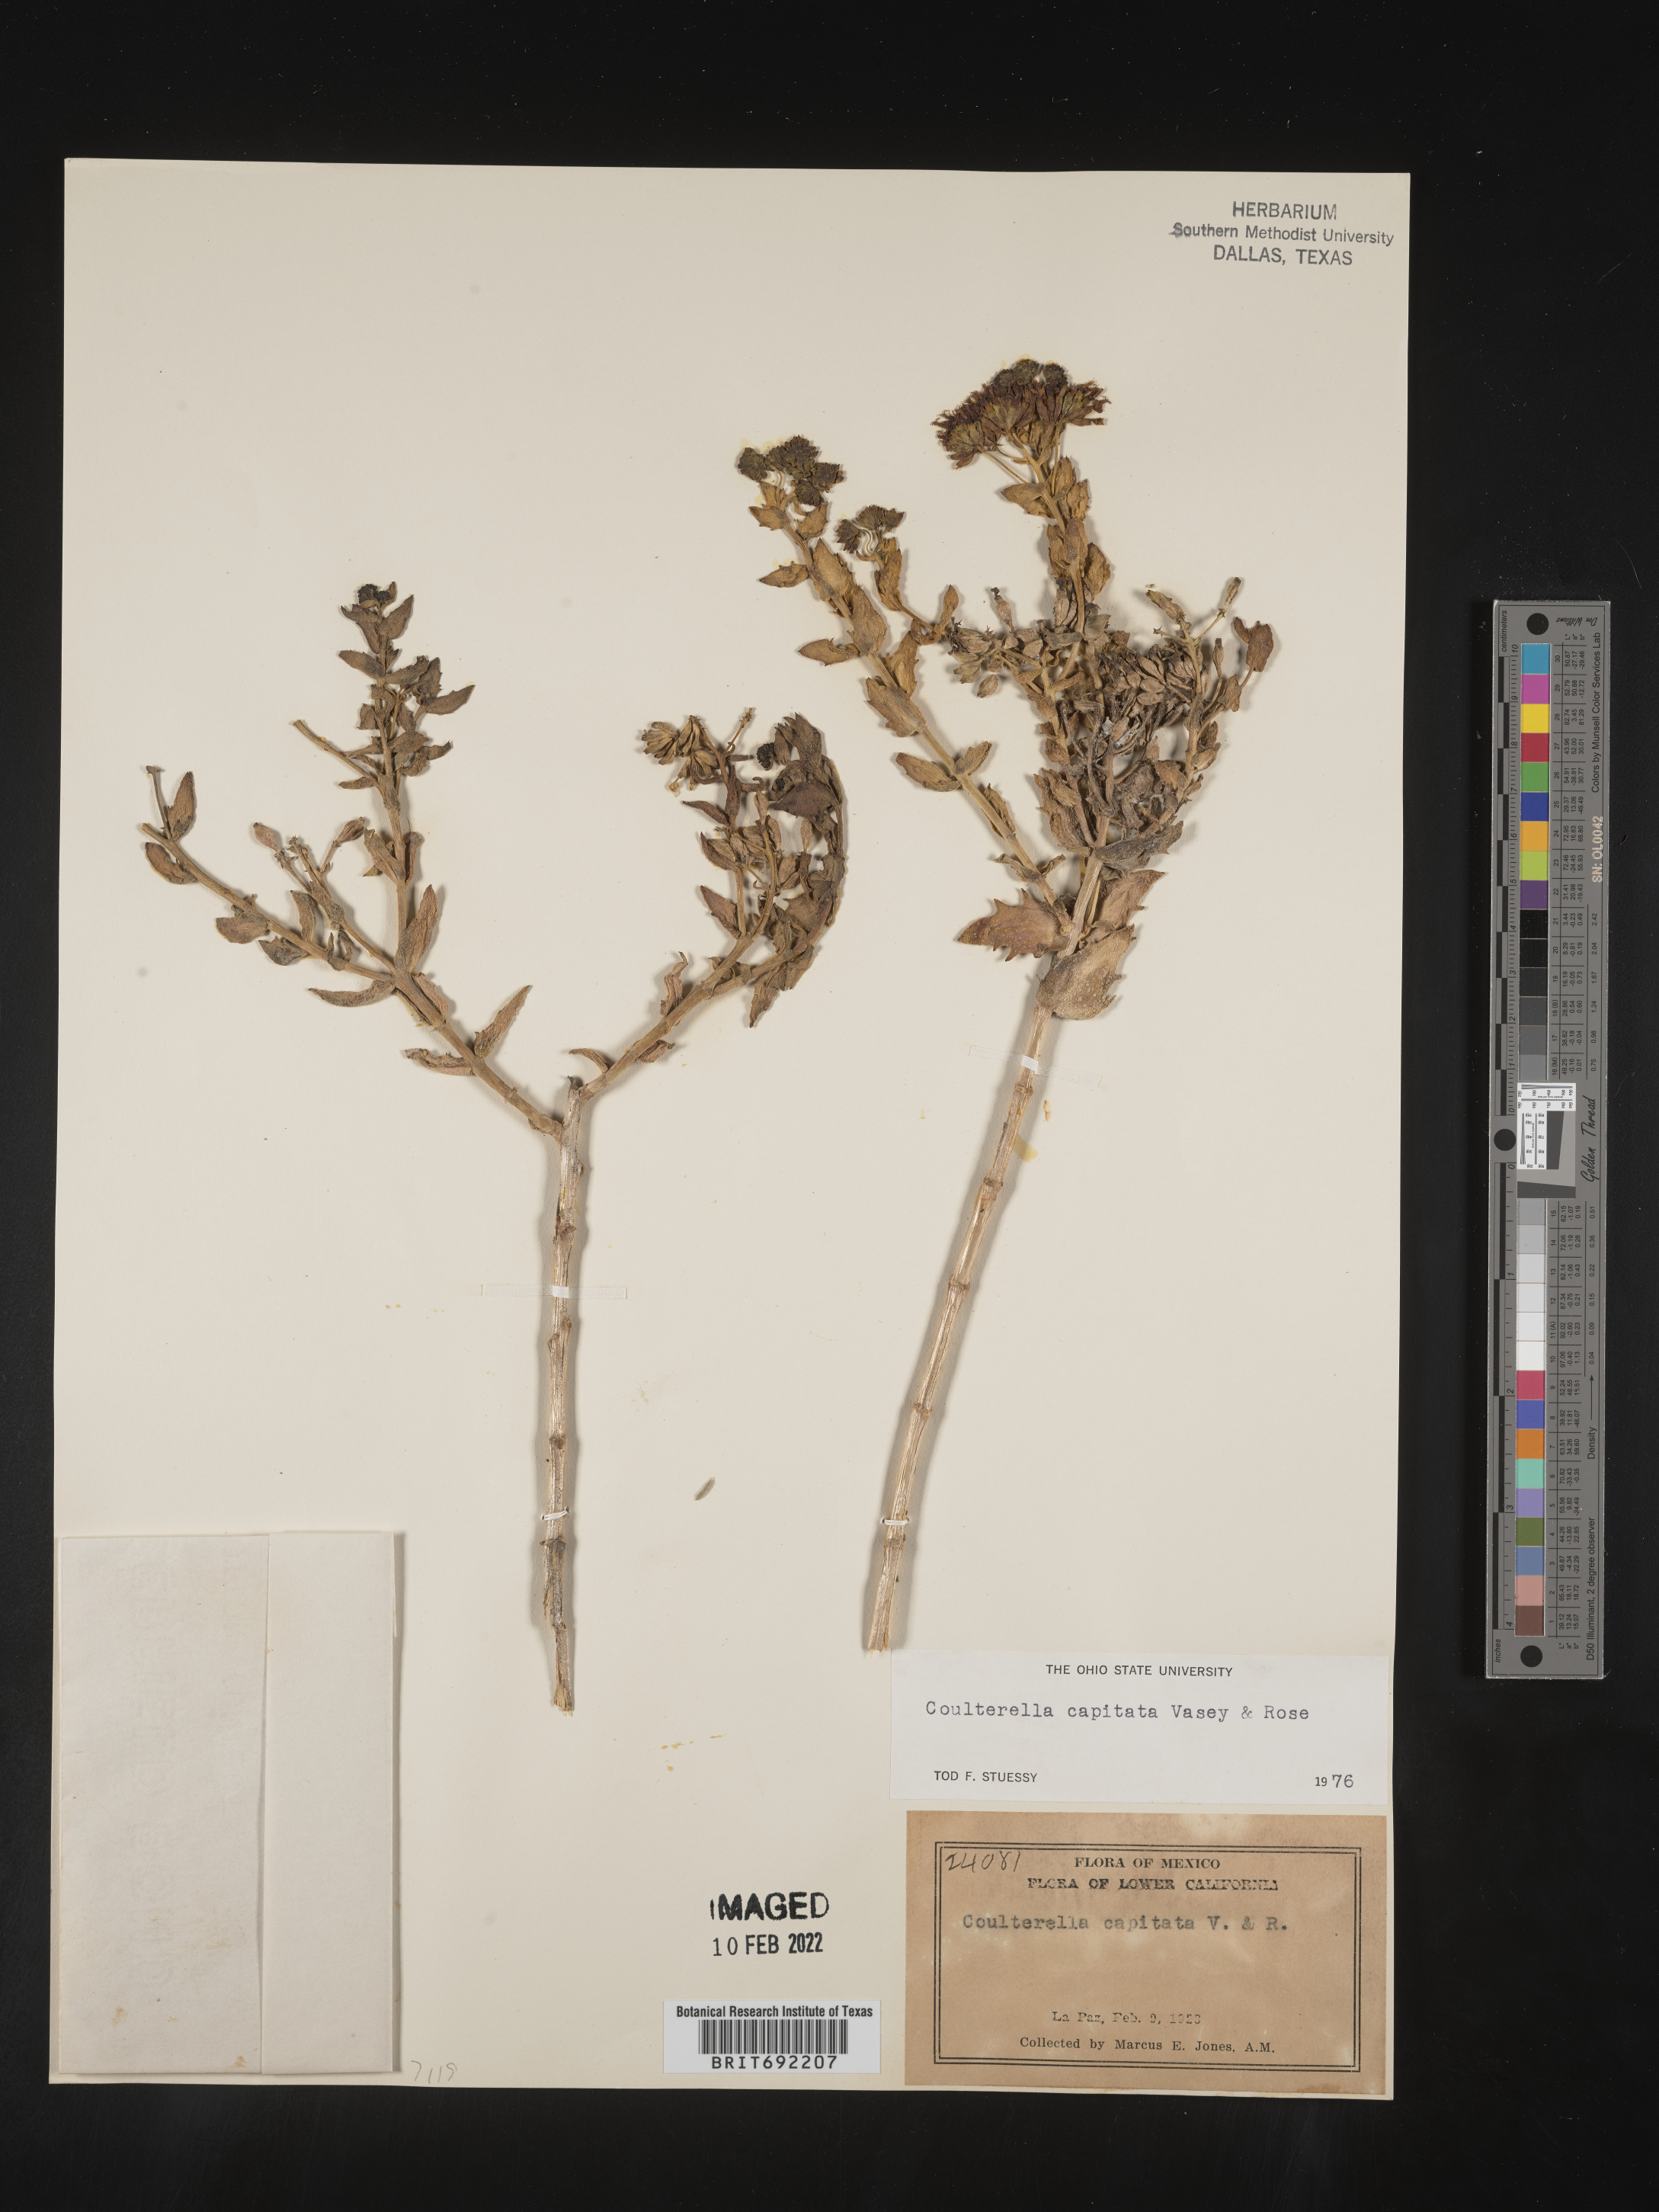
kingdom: Plantae
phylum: Tracheophyta
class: Magnoliopsida
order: Asterales
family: Asteraceae
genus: Coulterella
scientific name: Coulterella
